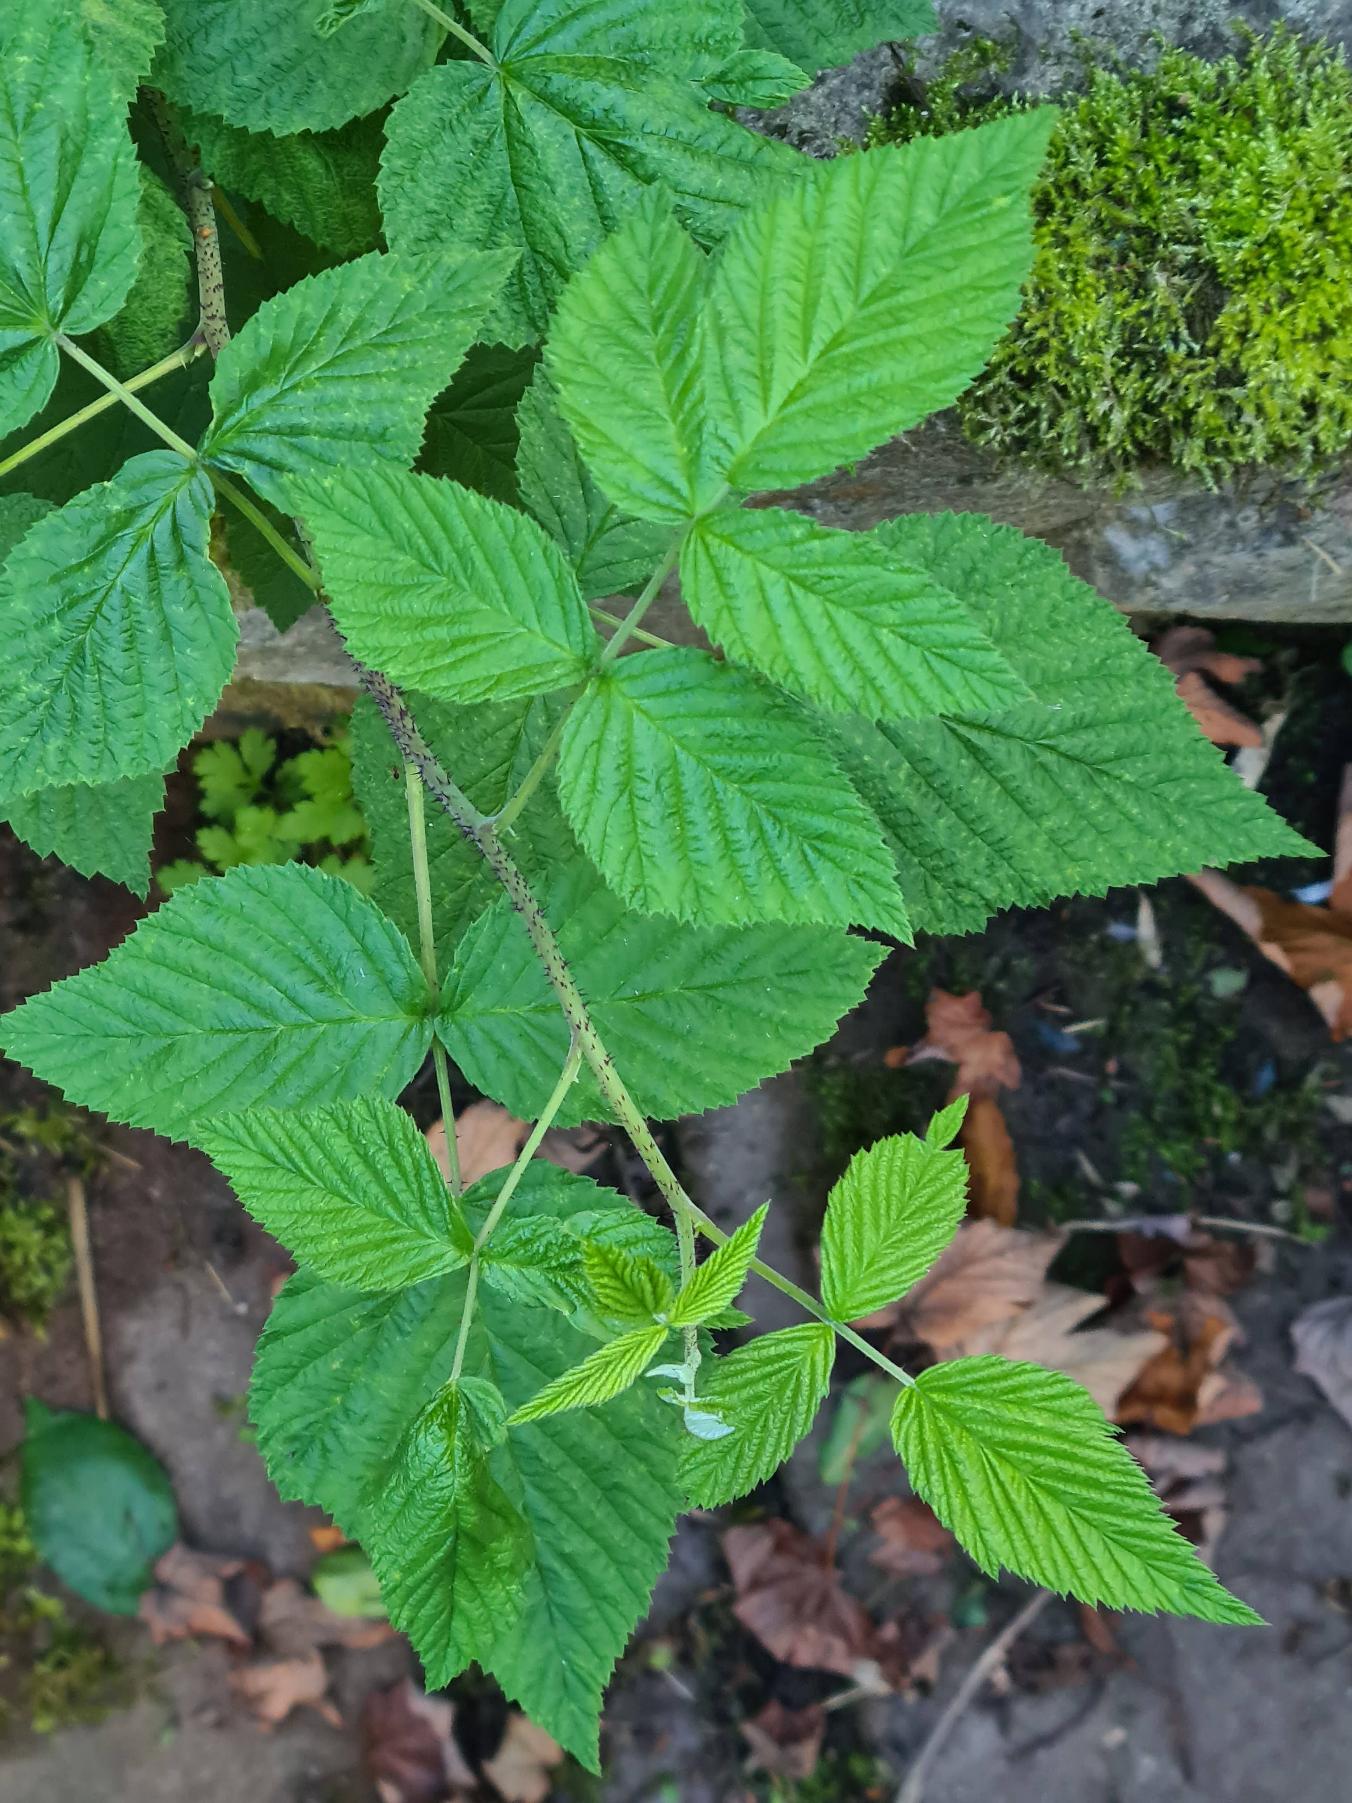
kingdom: Plantae
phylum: Tracheophyta
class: Magnoliopsida
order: Rosales
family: Rosaceae
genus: Rubus
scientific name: Rubus idaeus
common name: Hindbær
